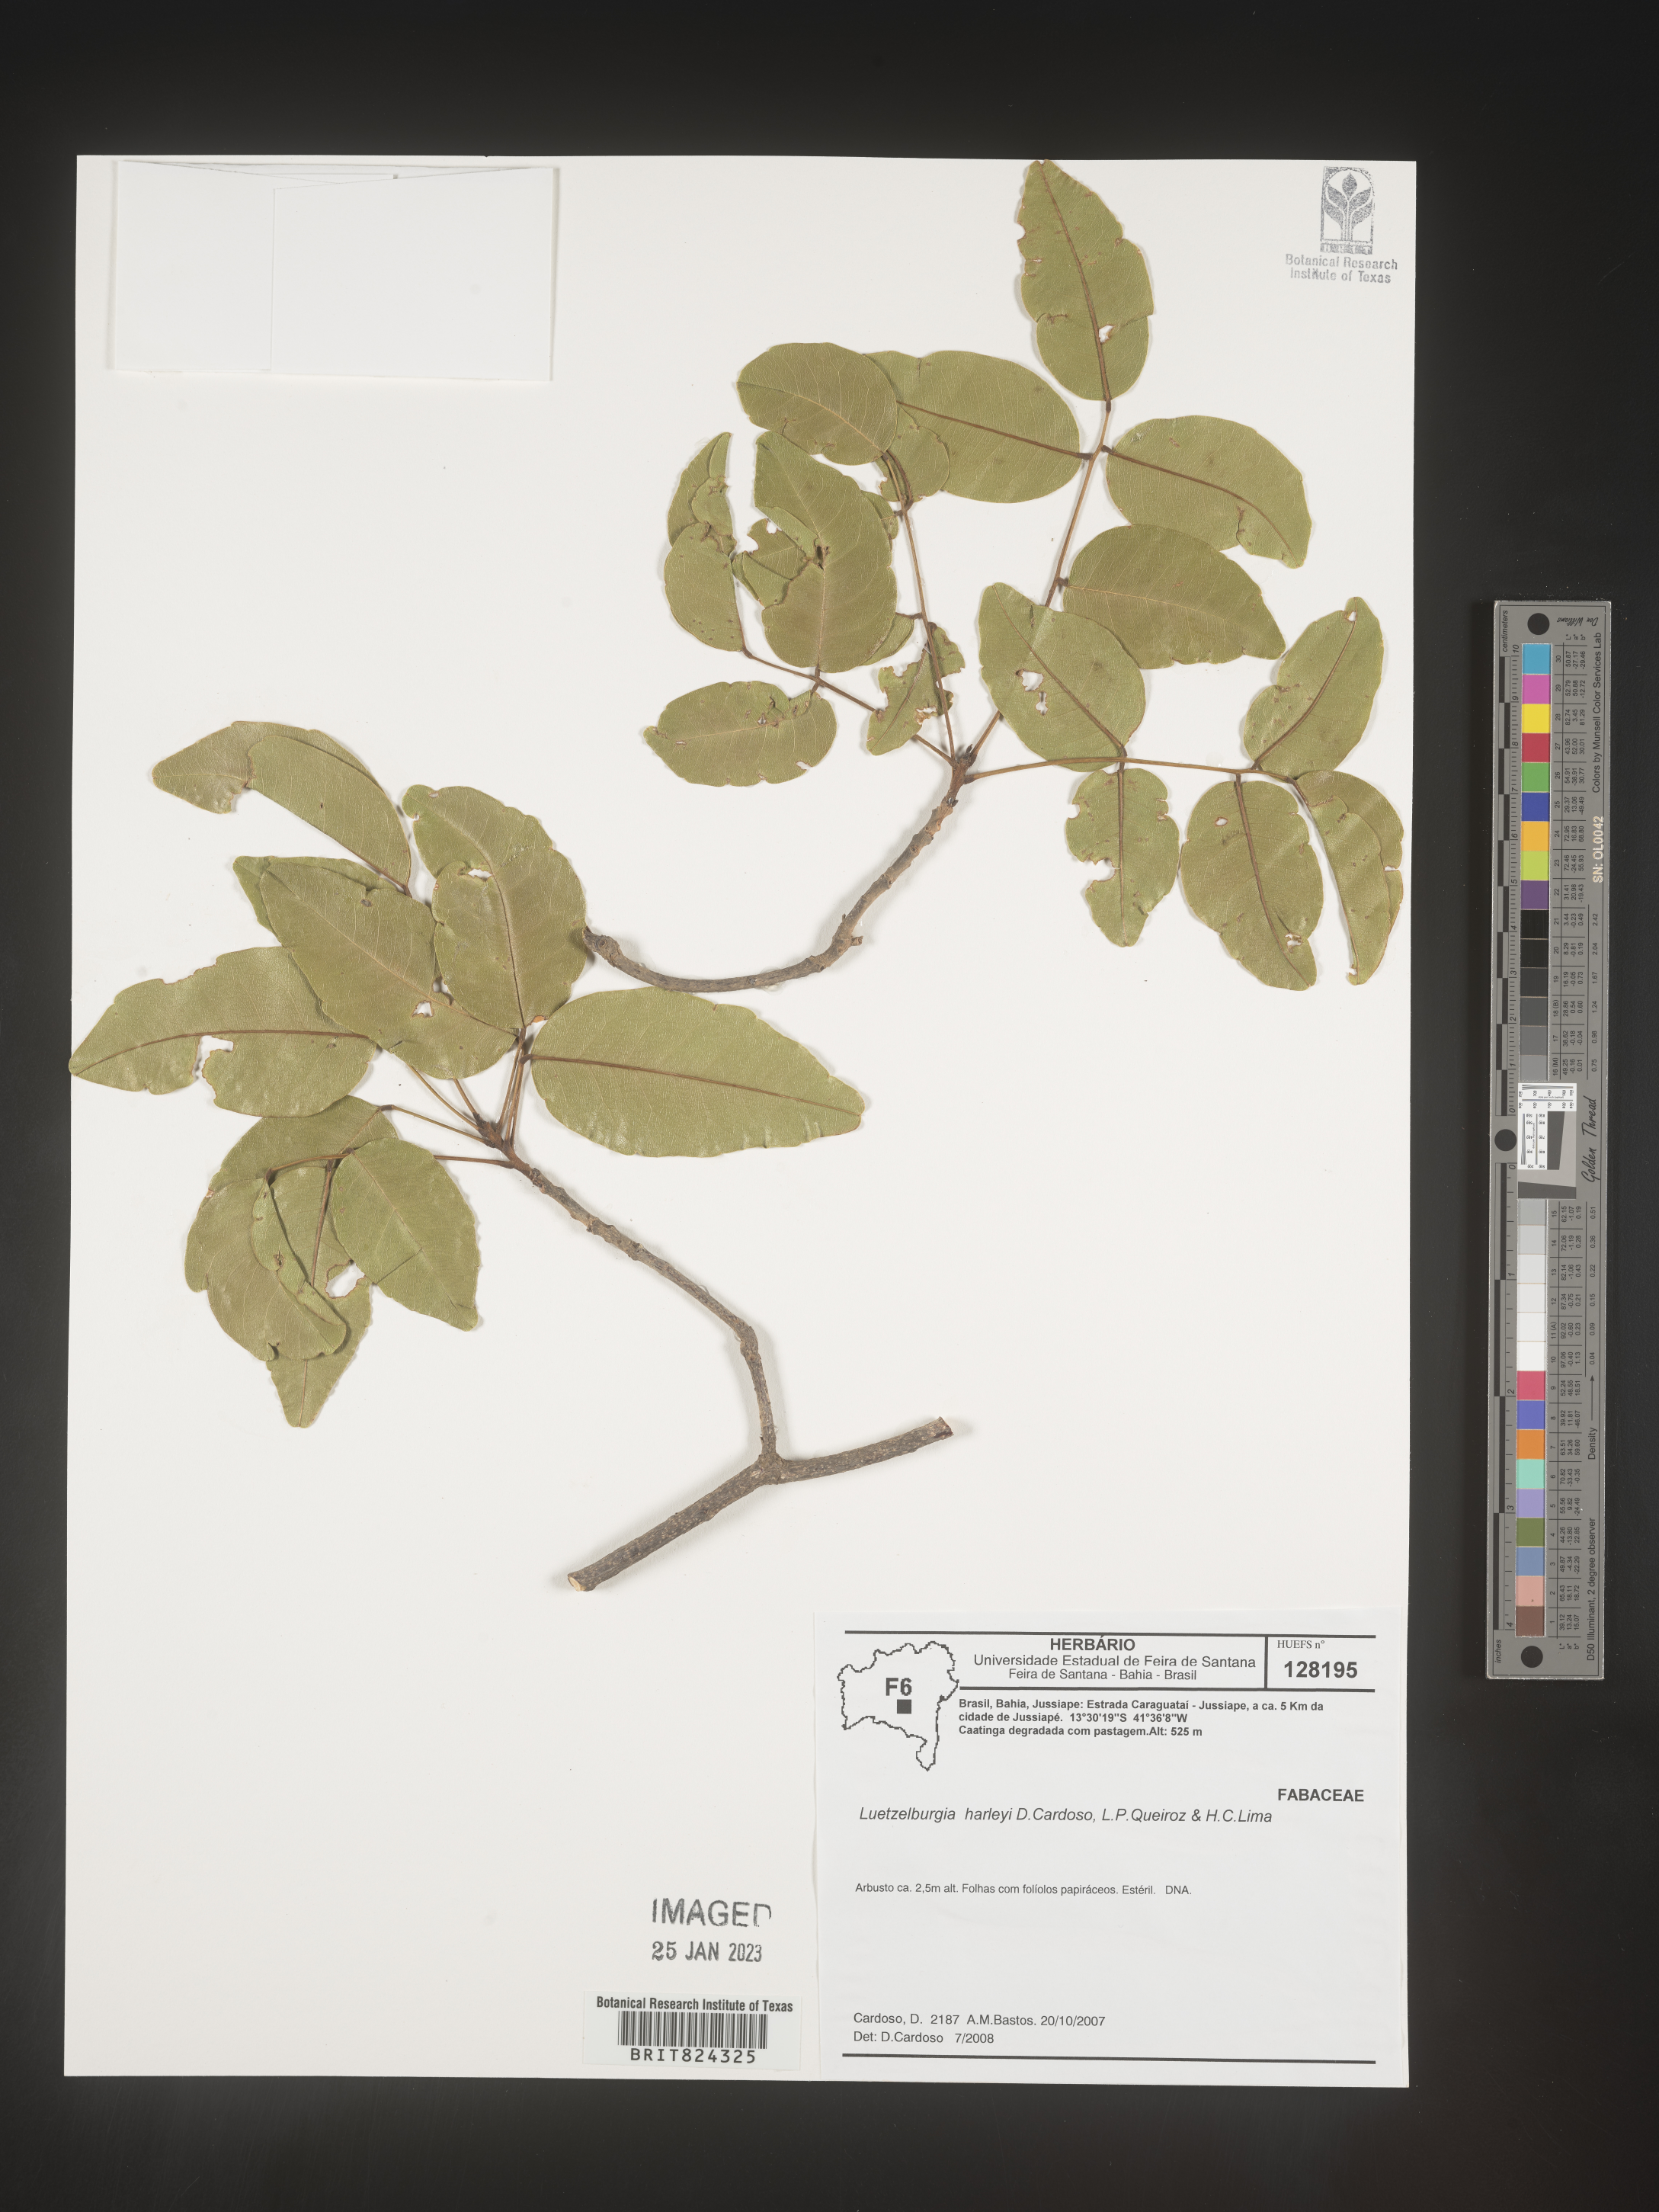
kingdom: Plantae
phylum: Tracheophyta
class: Magnoliopsida
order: Fabales
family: Fabaceae
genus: Luetzelburgia
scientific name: Luetzelburgia
